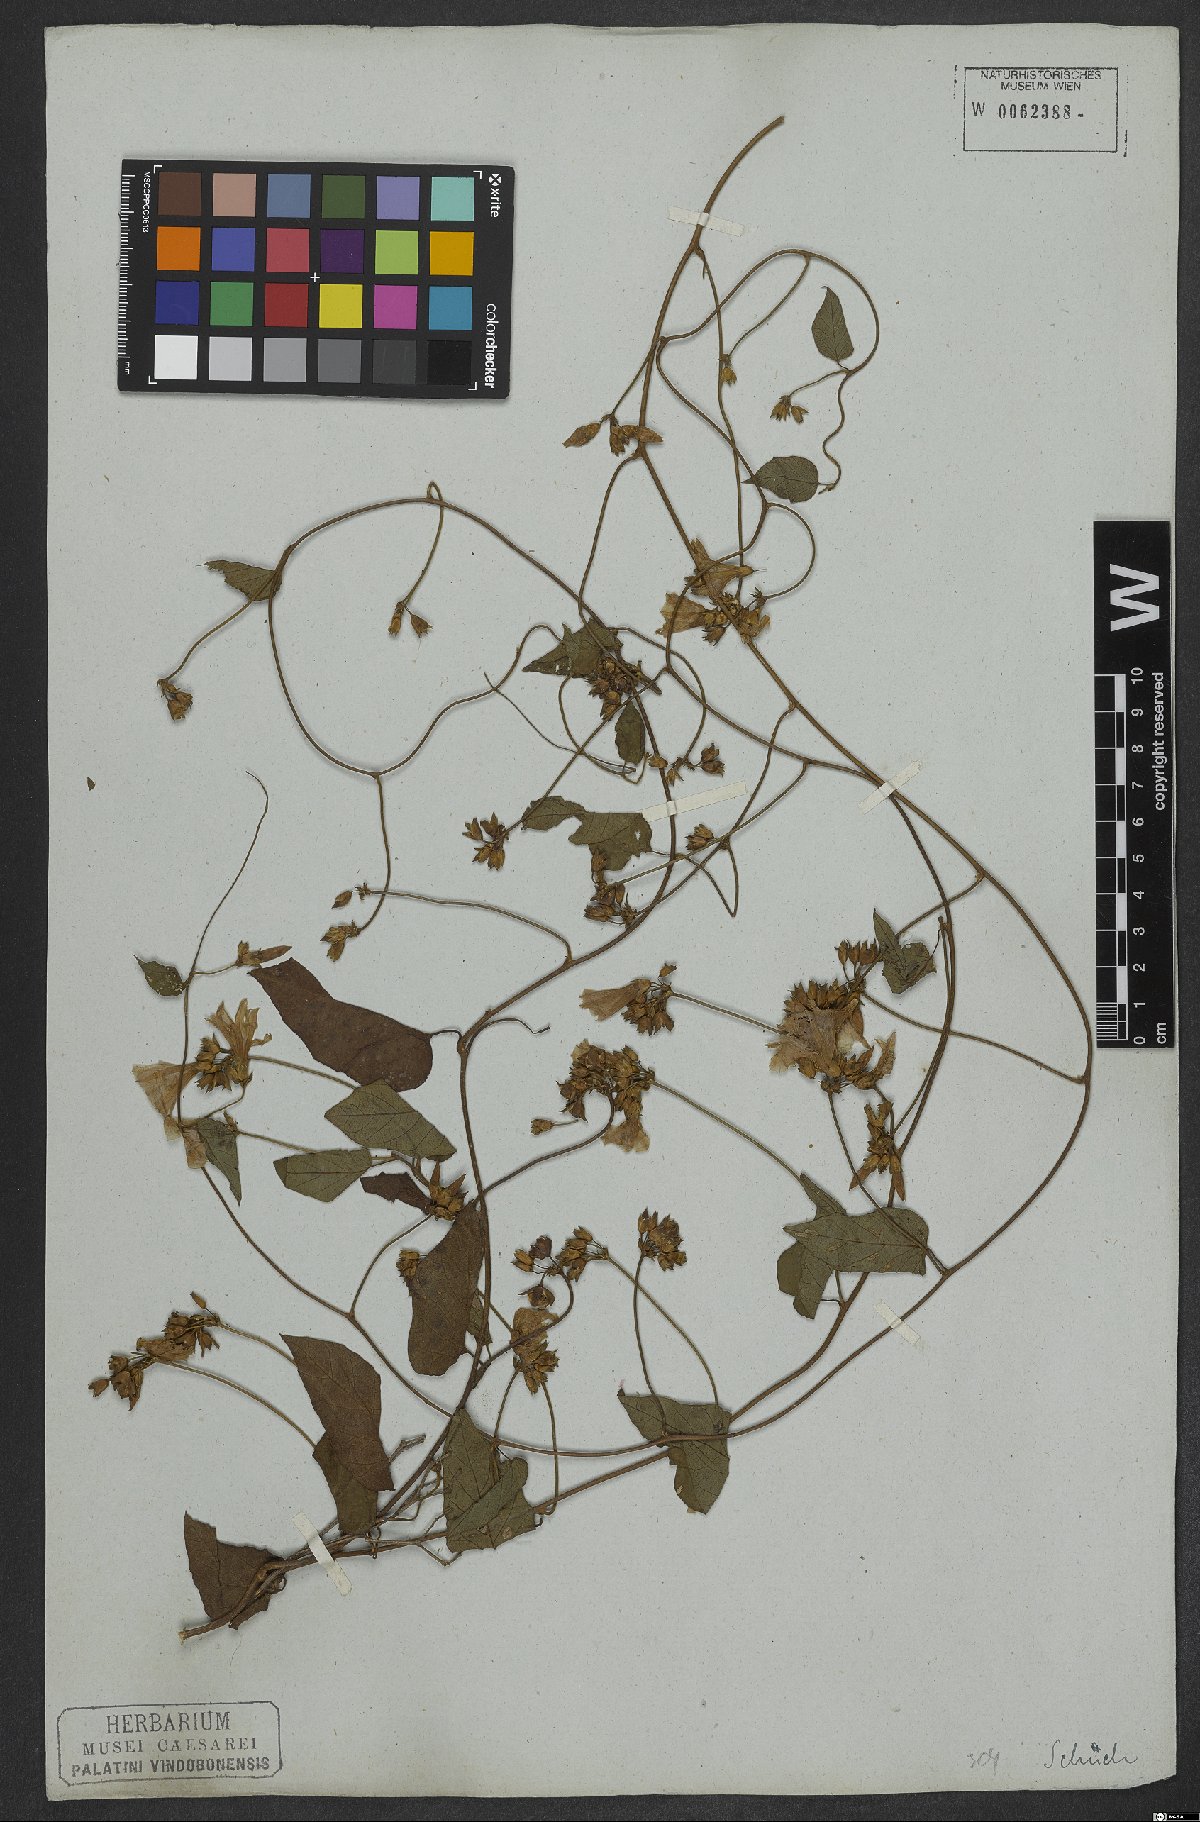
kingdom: Plantae
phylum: Tracheophyta
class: Magnoliopsida
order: Solanales
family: Convolvulaceae
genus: Jacquemontia
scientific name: Jacquemontia martii
